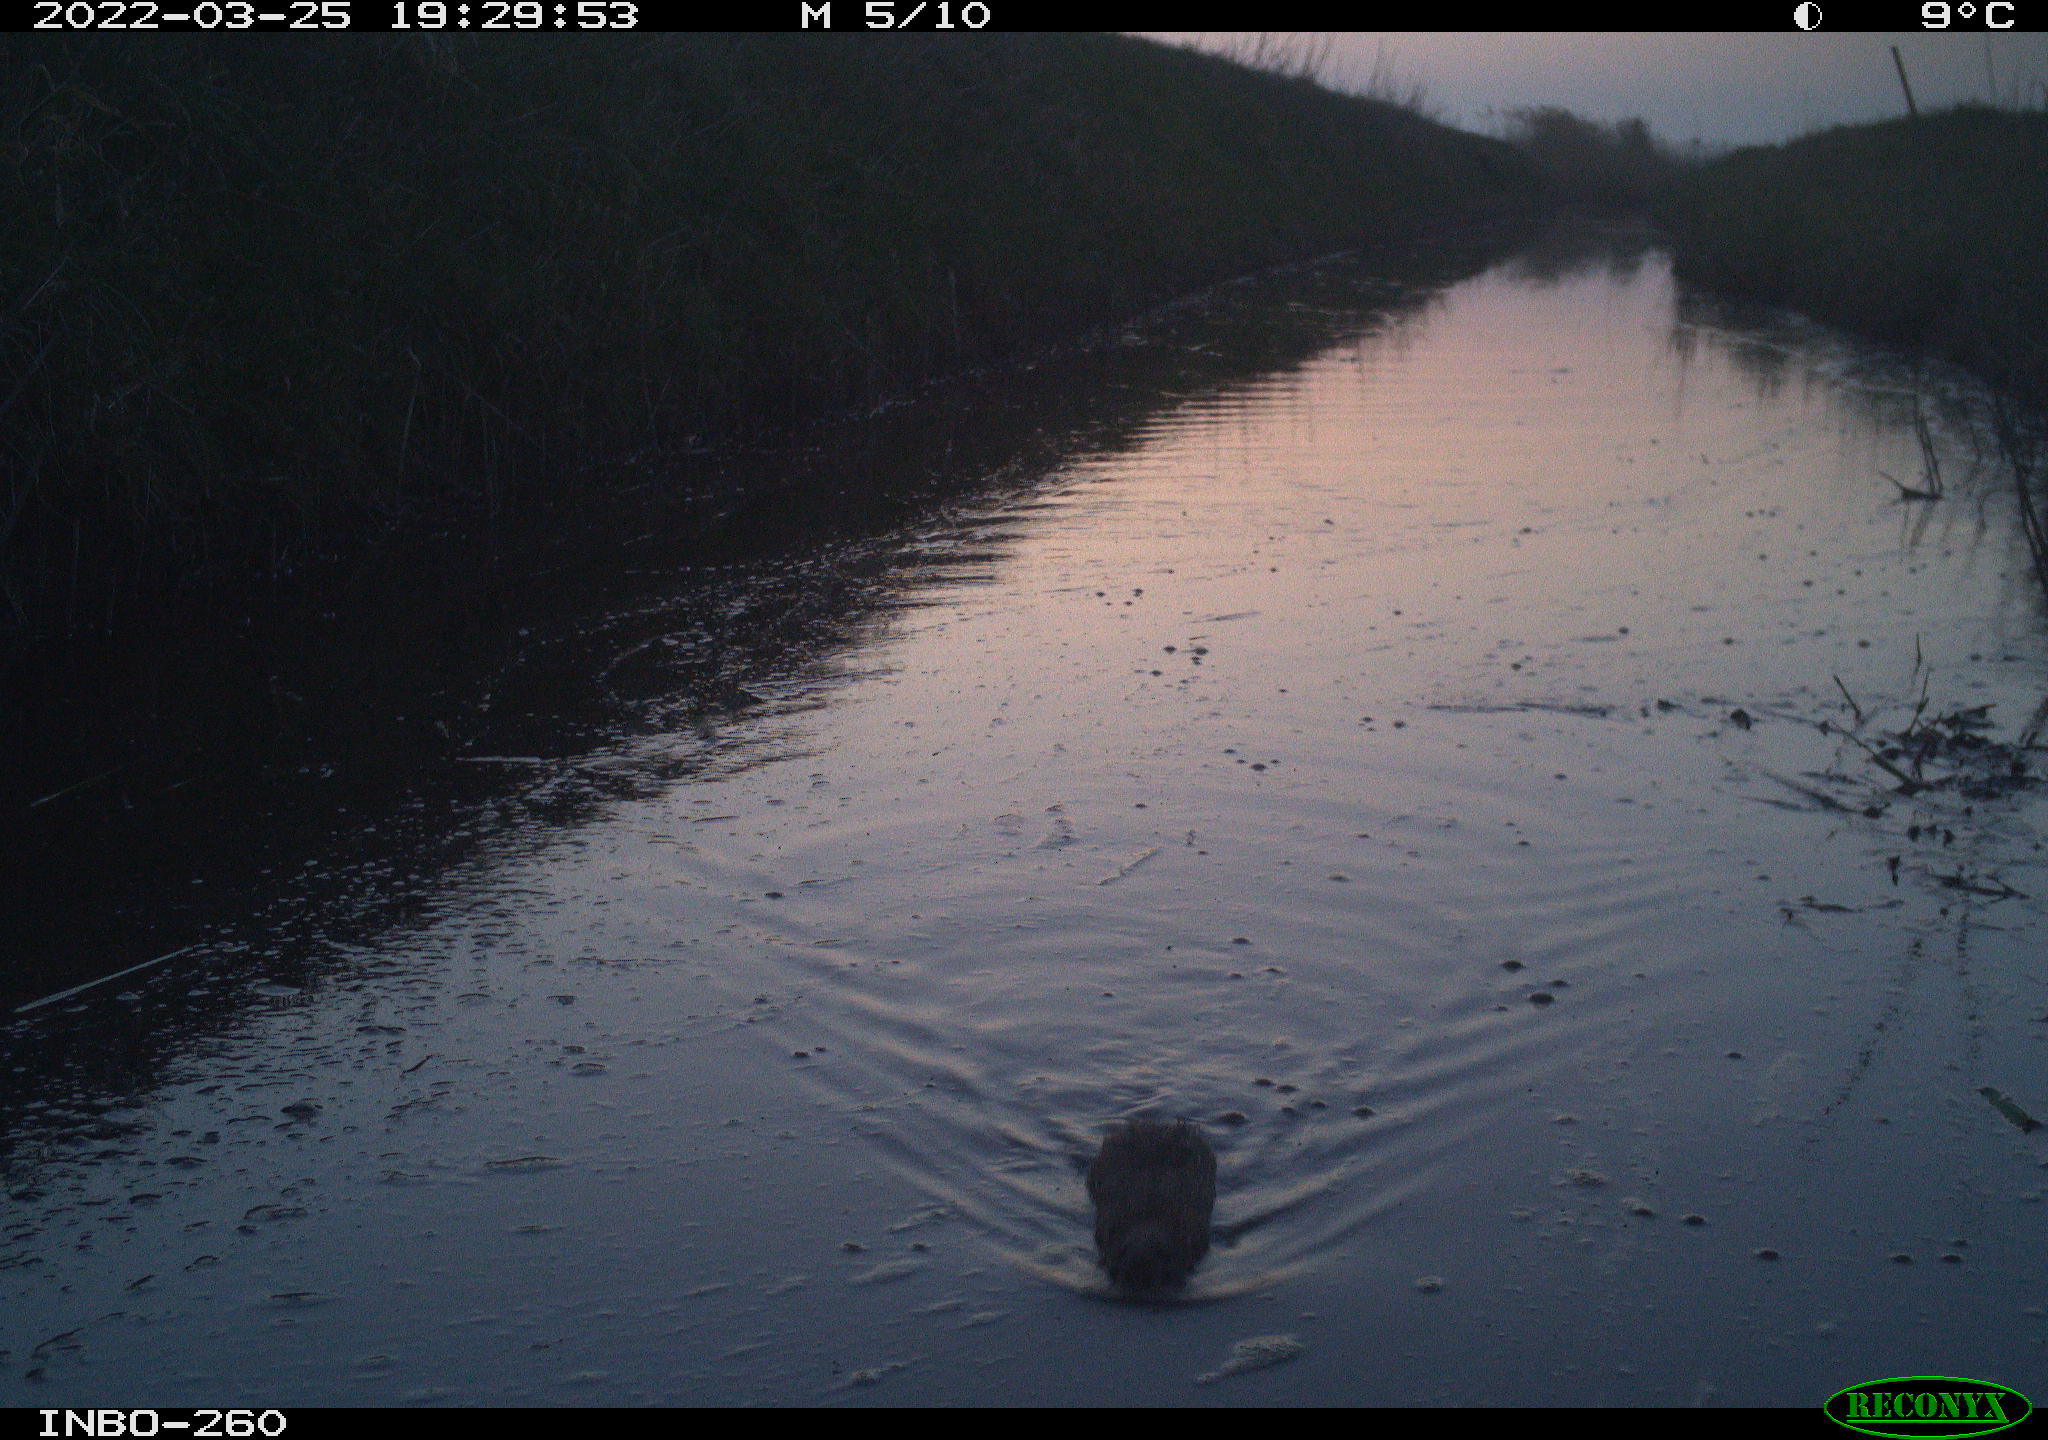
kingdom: Animalia
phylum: Chordata
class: Mammalia
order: Rodentia
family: Cricetidae
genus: Ondatra
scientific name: Ondatra zibethicus
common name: Muskrat
